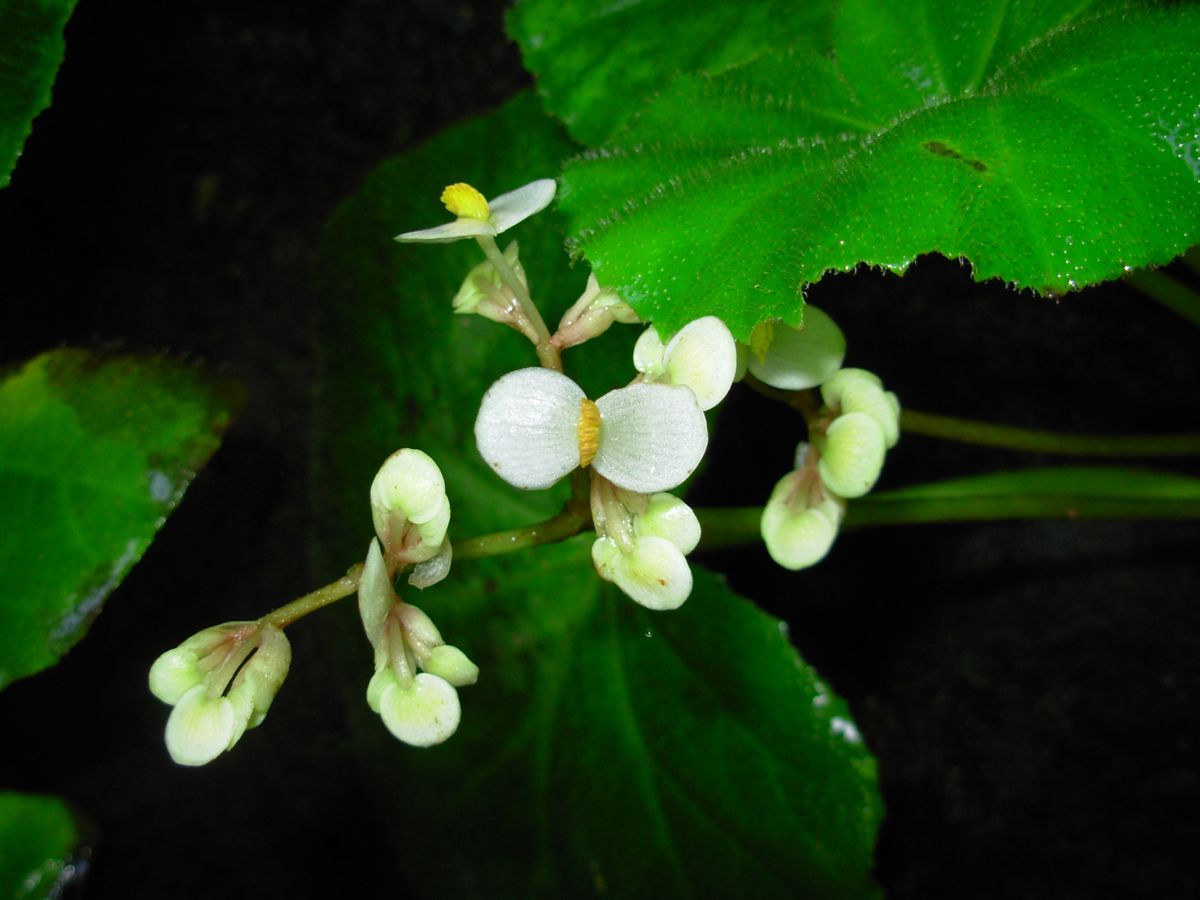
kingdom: Plantae
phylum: Tracheophyta
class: Magnoliopsida
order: Cucurbitales
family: Begoniaceae
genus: Begonia
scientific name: Begonia plebeja
